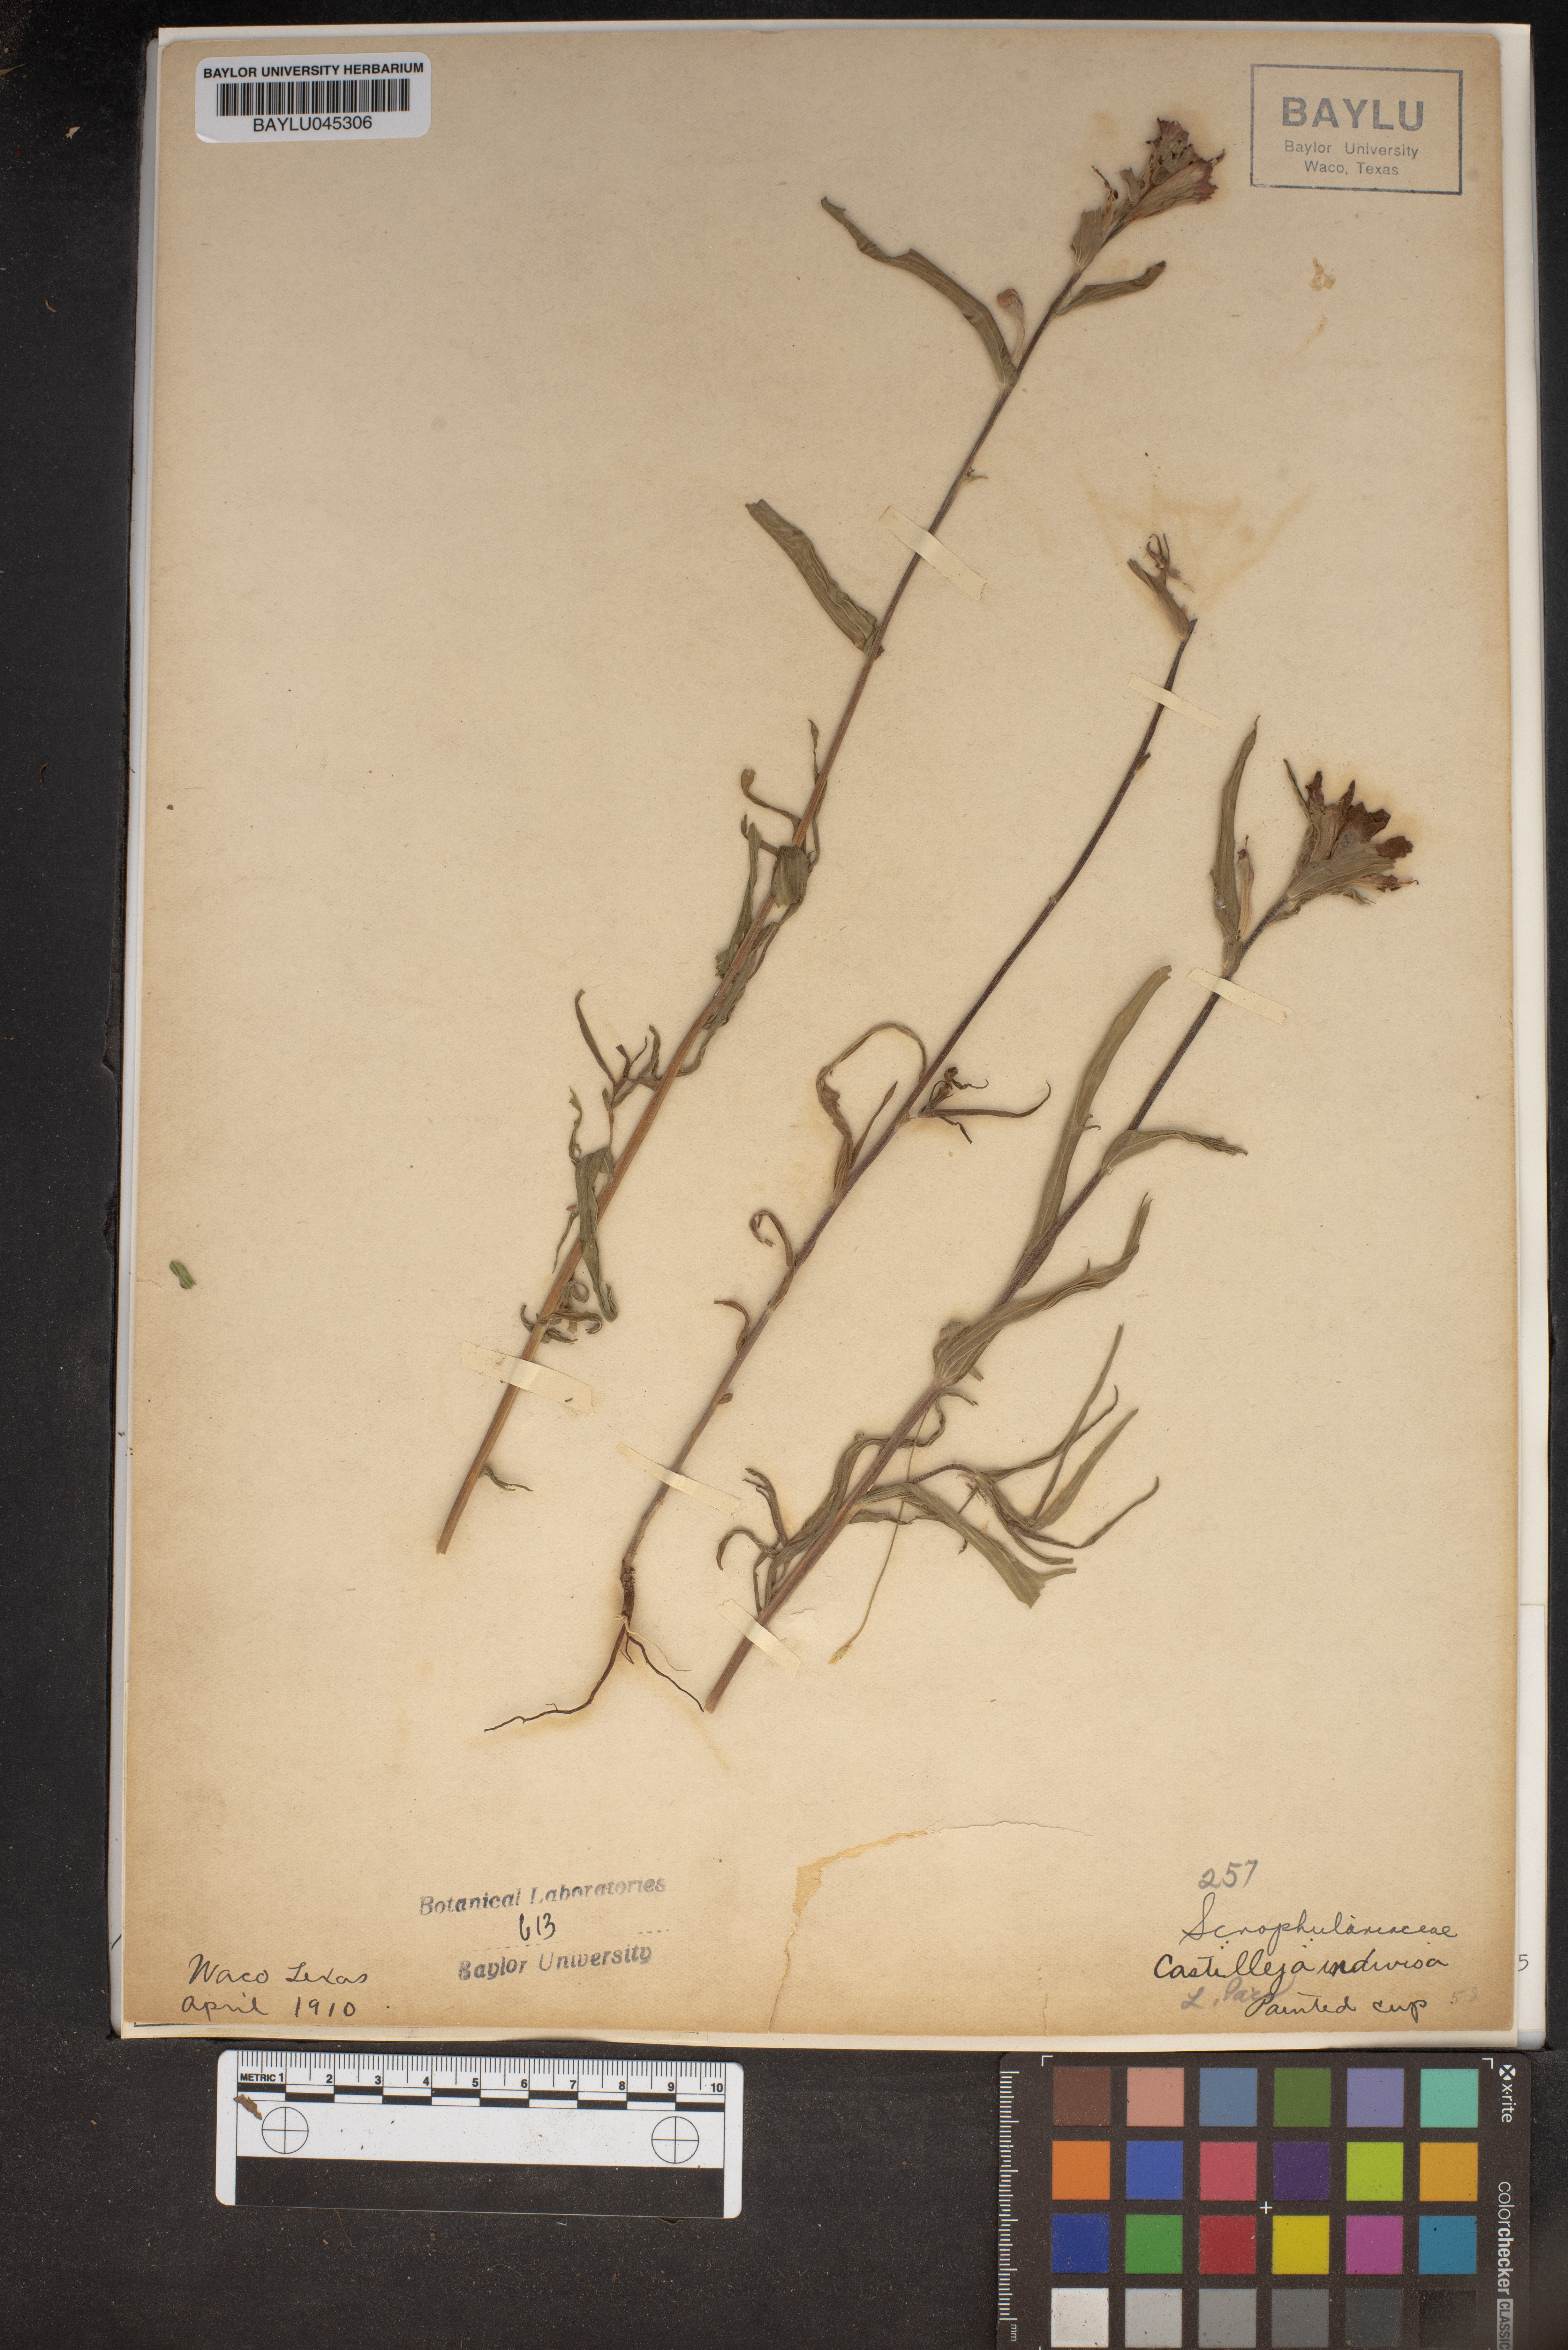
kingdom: Plantae
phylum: Tracheophyta
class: Magnoliopsida
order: Lamiales
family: Orobanchaceae
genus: Castilleja
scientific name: Castilleja indivisa
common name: Texas paintbrush
